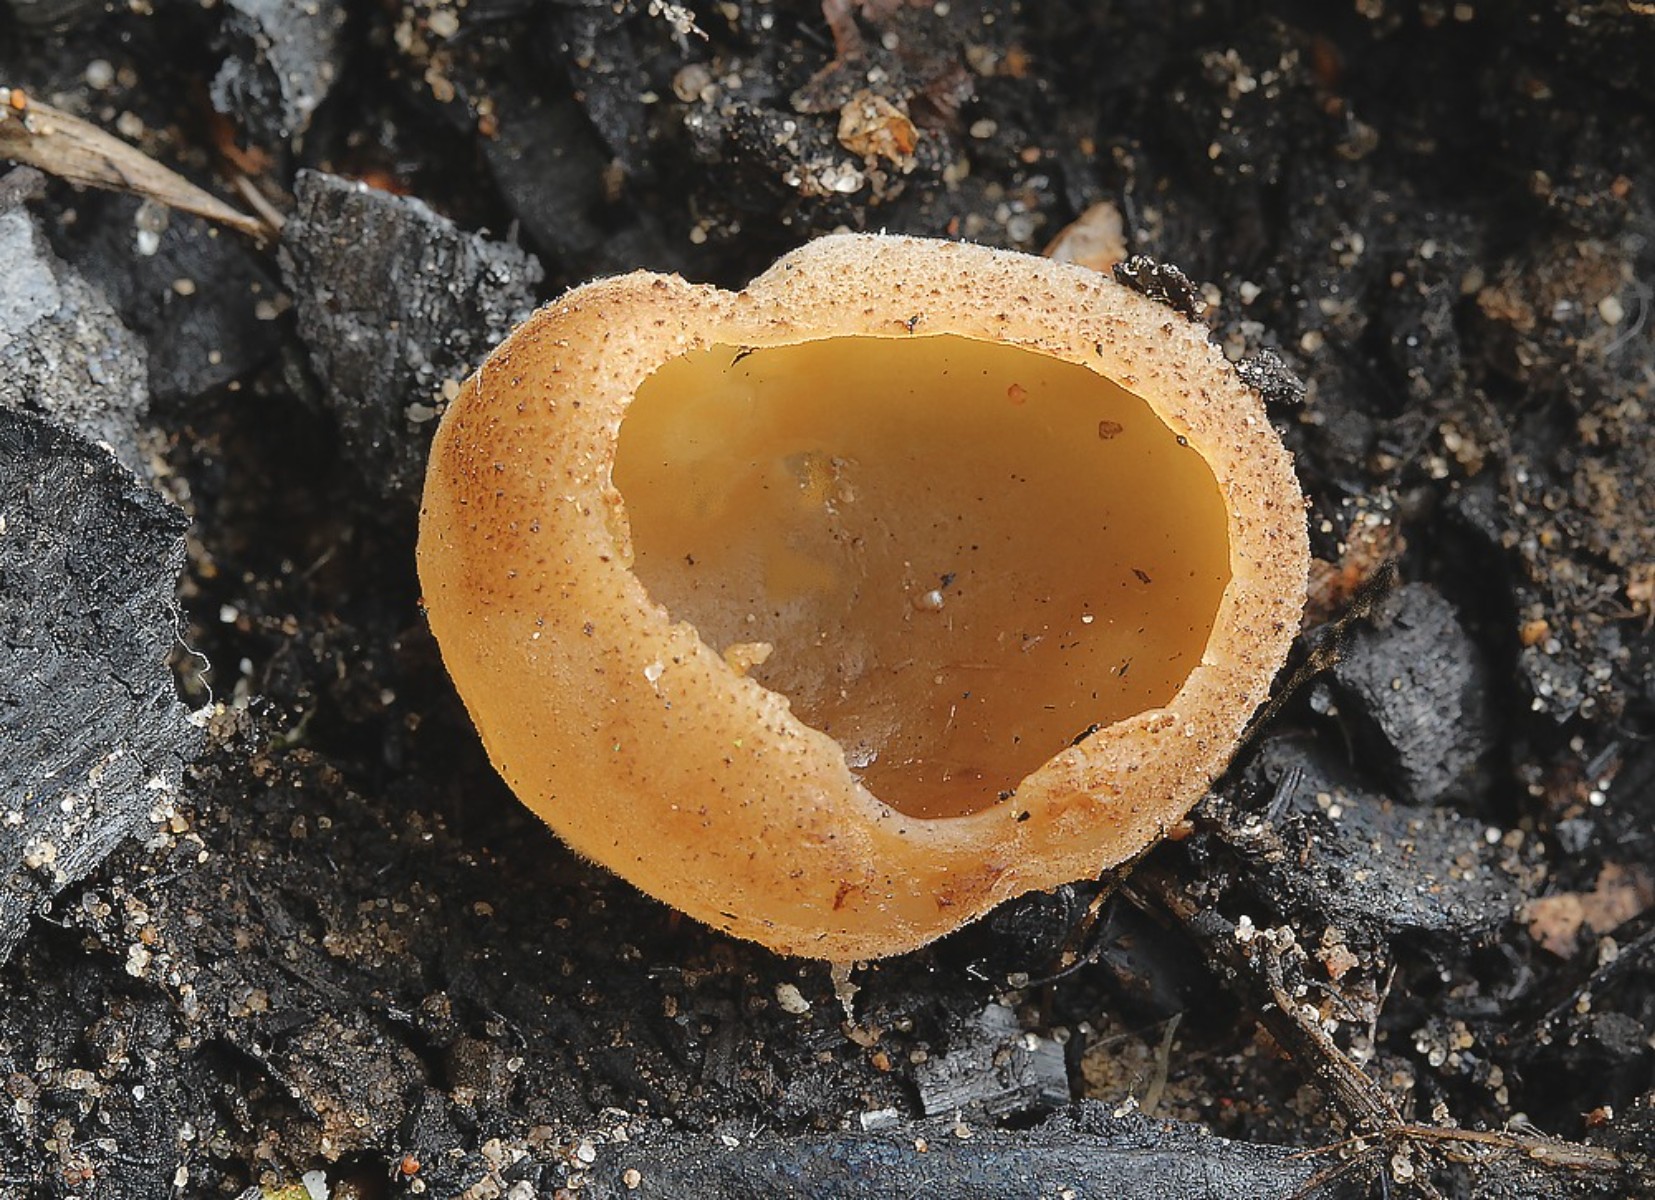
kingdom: Fungi
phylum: Ascomycota
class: Pezizomycetes
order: Pezizales
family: Pezizaceae
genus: Daleomyces
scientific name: Daleomyces petersii
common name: brandplet-bægersvamp
